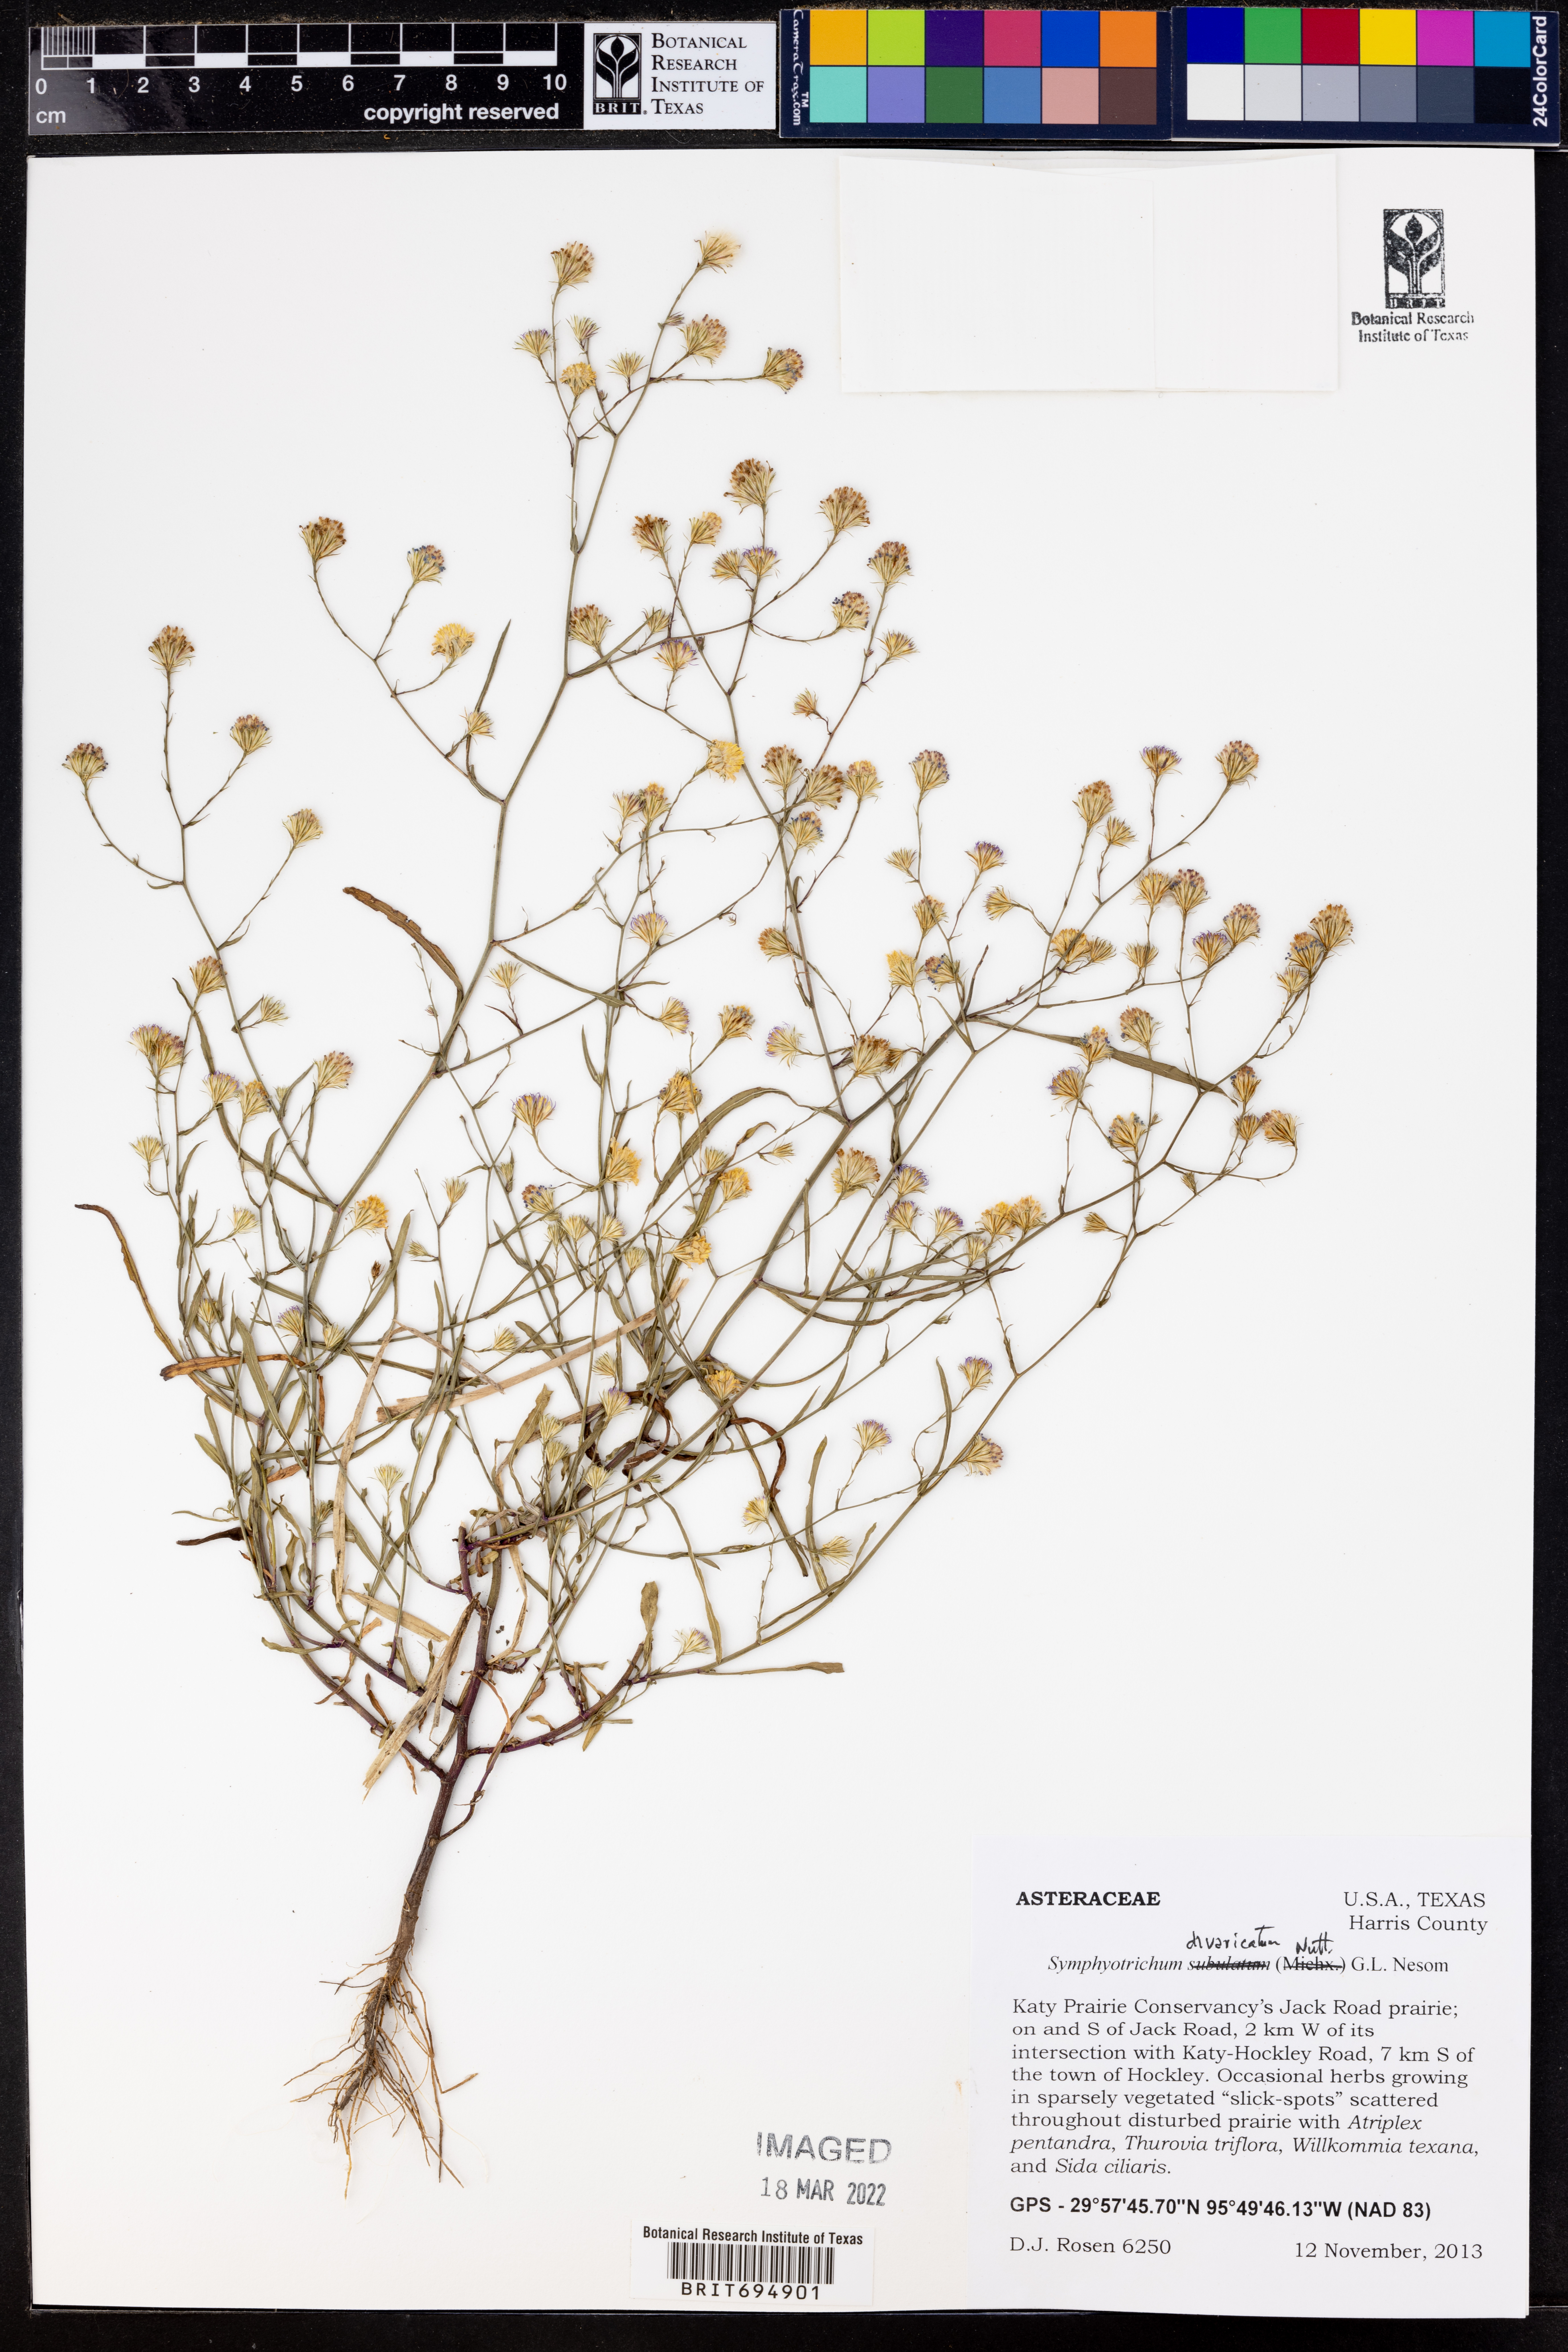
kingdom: Plantae
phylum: Tracheophyta
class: Magnoliopsida
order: Asterales
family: Asteraceae
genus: Symphyotrichum
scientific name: Symphyotrichum divaricatum
